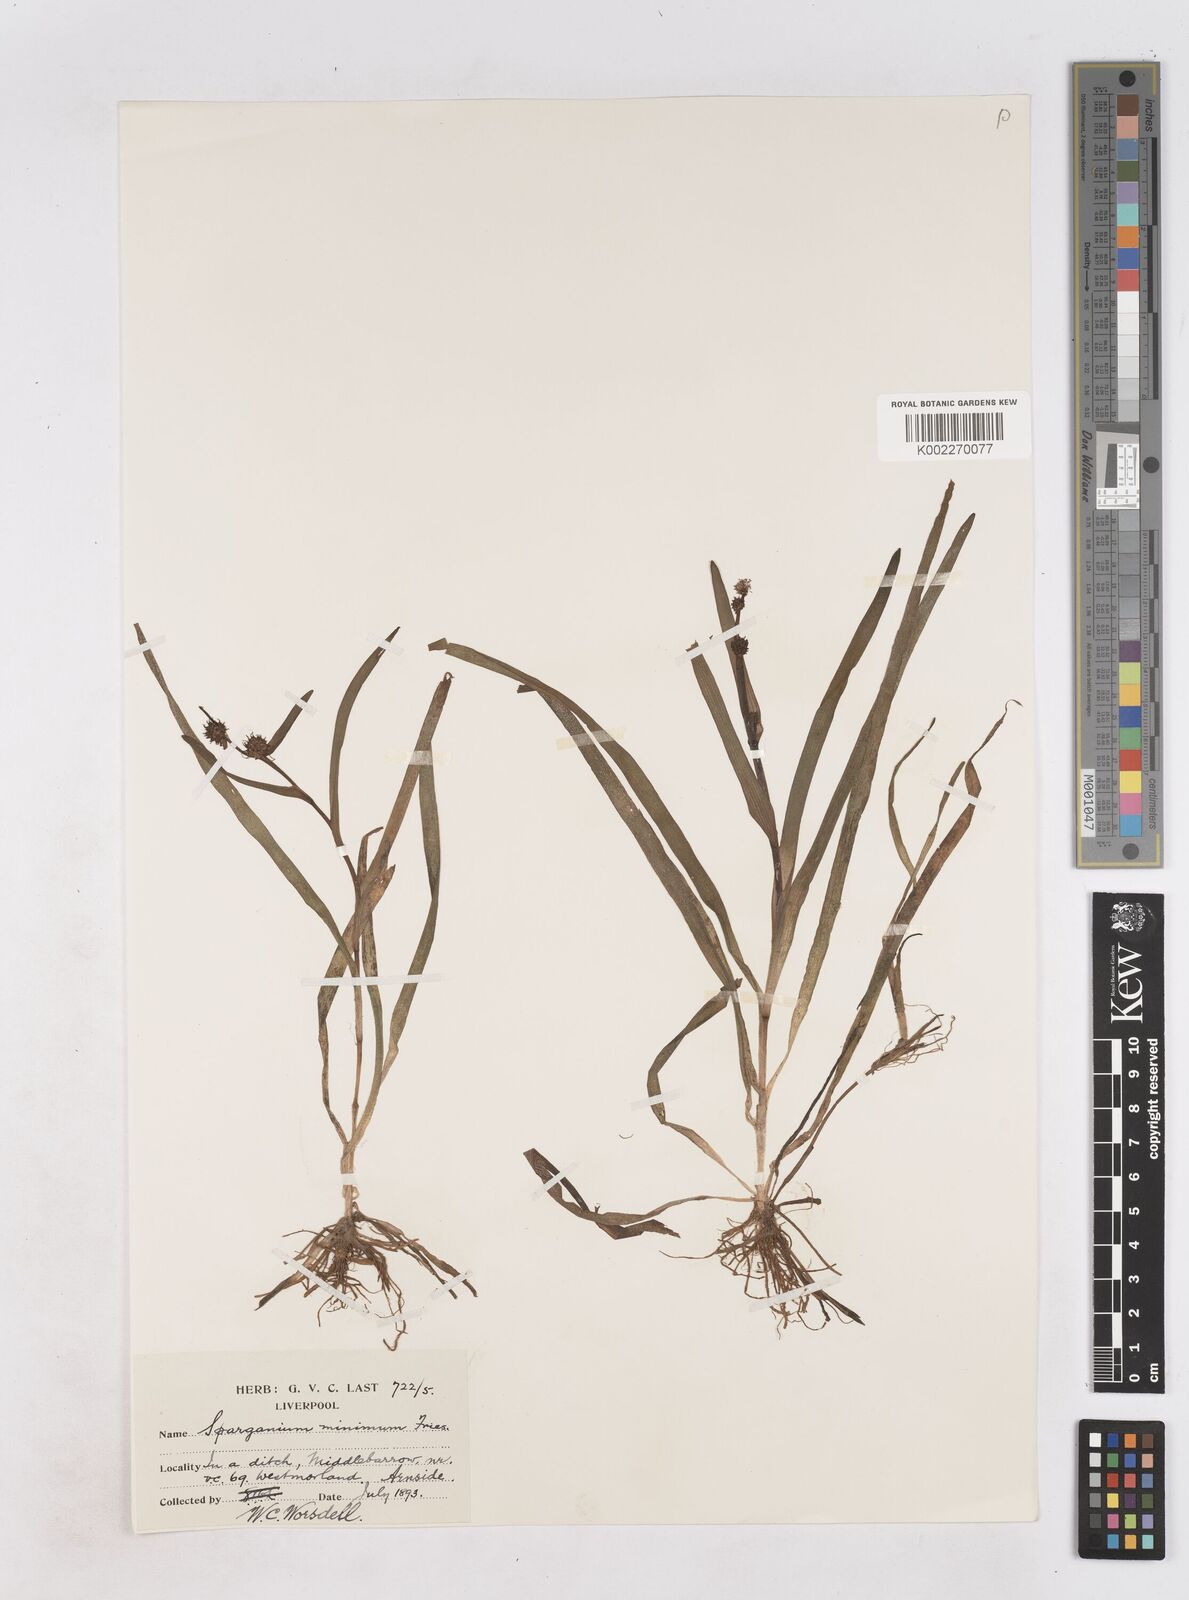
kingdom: Plantae
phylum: Tracheophyta
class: Liliopsida
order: Poales
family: Typhaceae
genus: Sparganium
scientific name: Sparganium natans
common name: Least bur-reed
